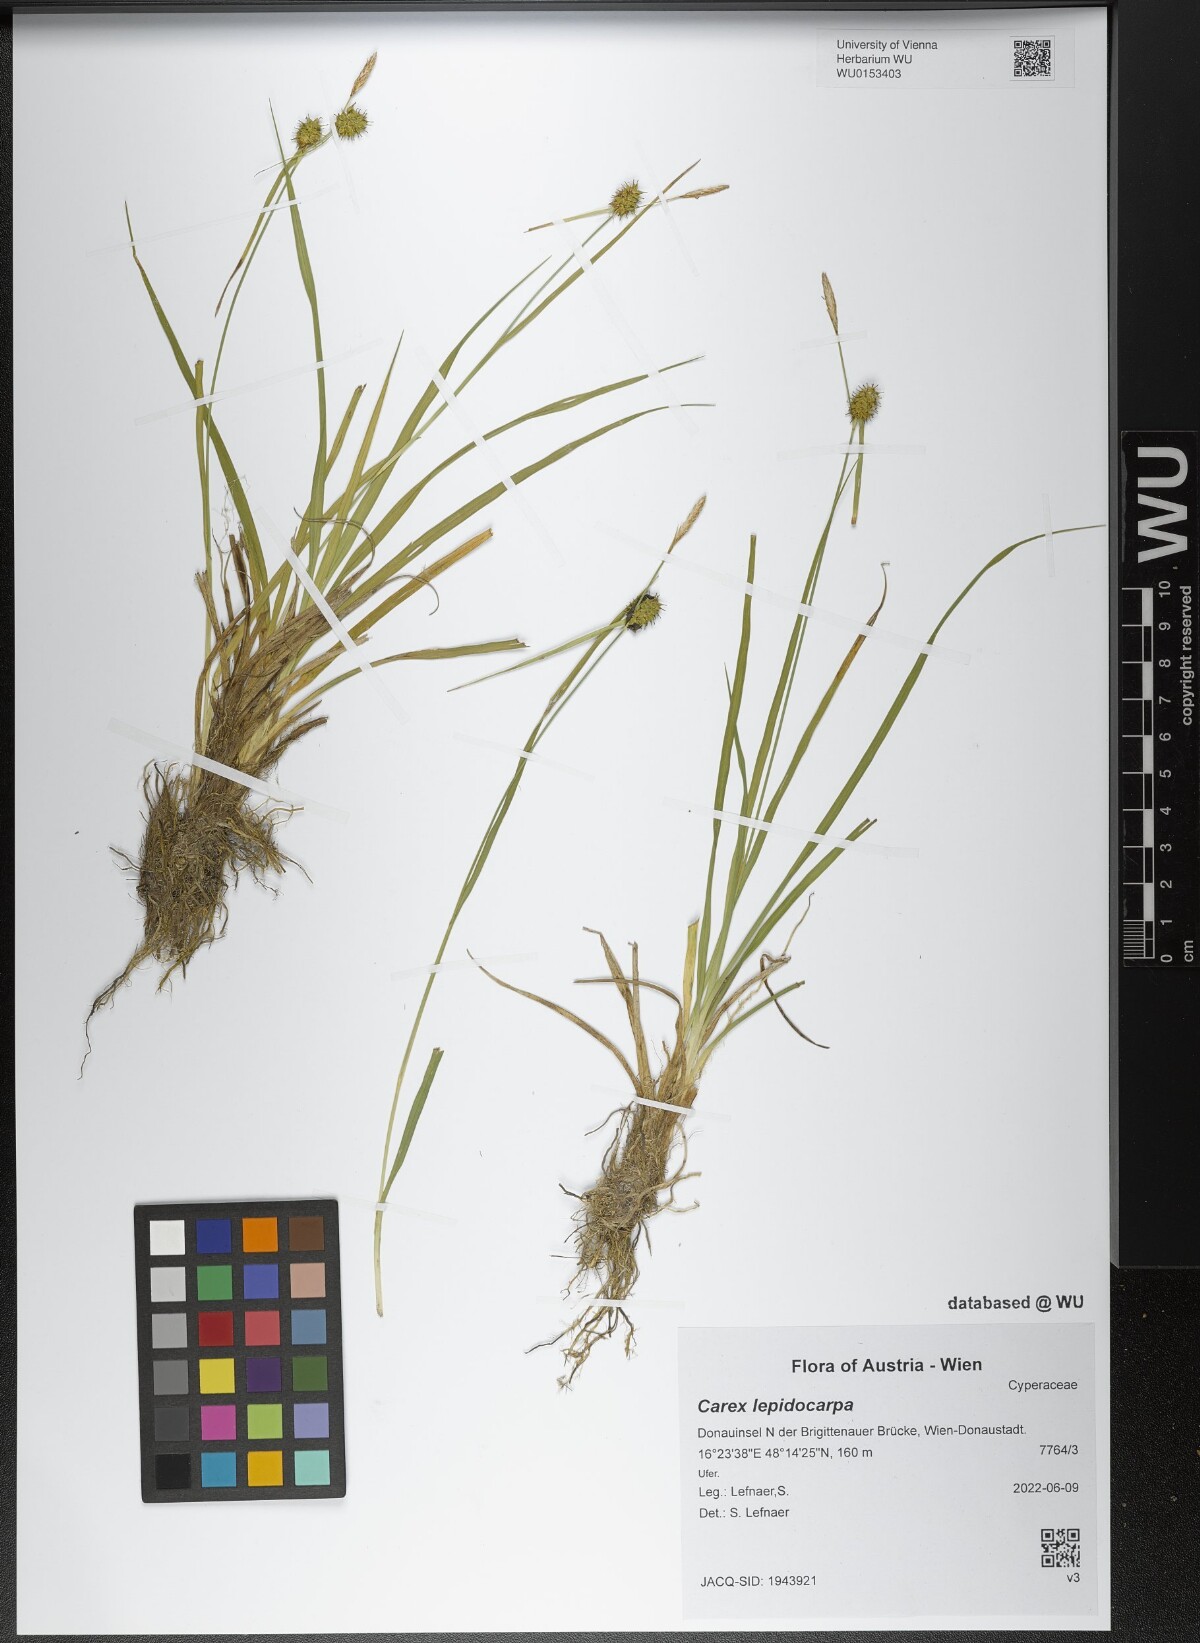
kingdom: Plantae
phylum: Tracheophyta
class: Liliopsida
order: Poales
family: Cyperaceae
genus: Carex
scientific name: Carex lepidocarpa
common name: Long-stalked yellow-sedge
